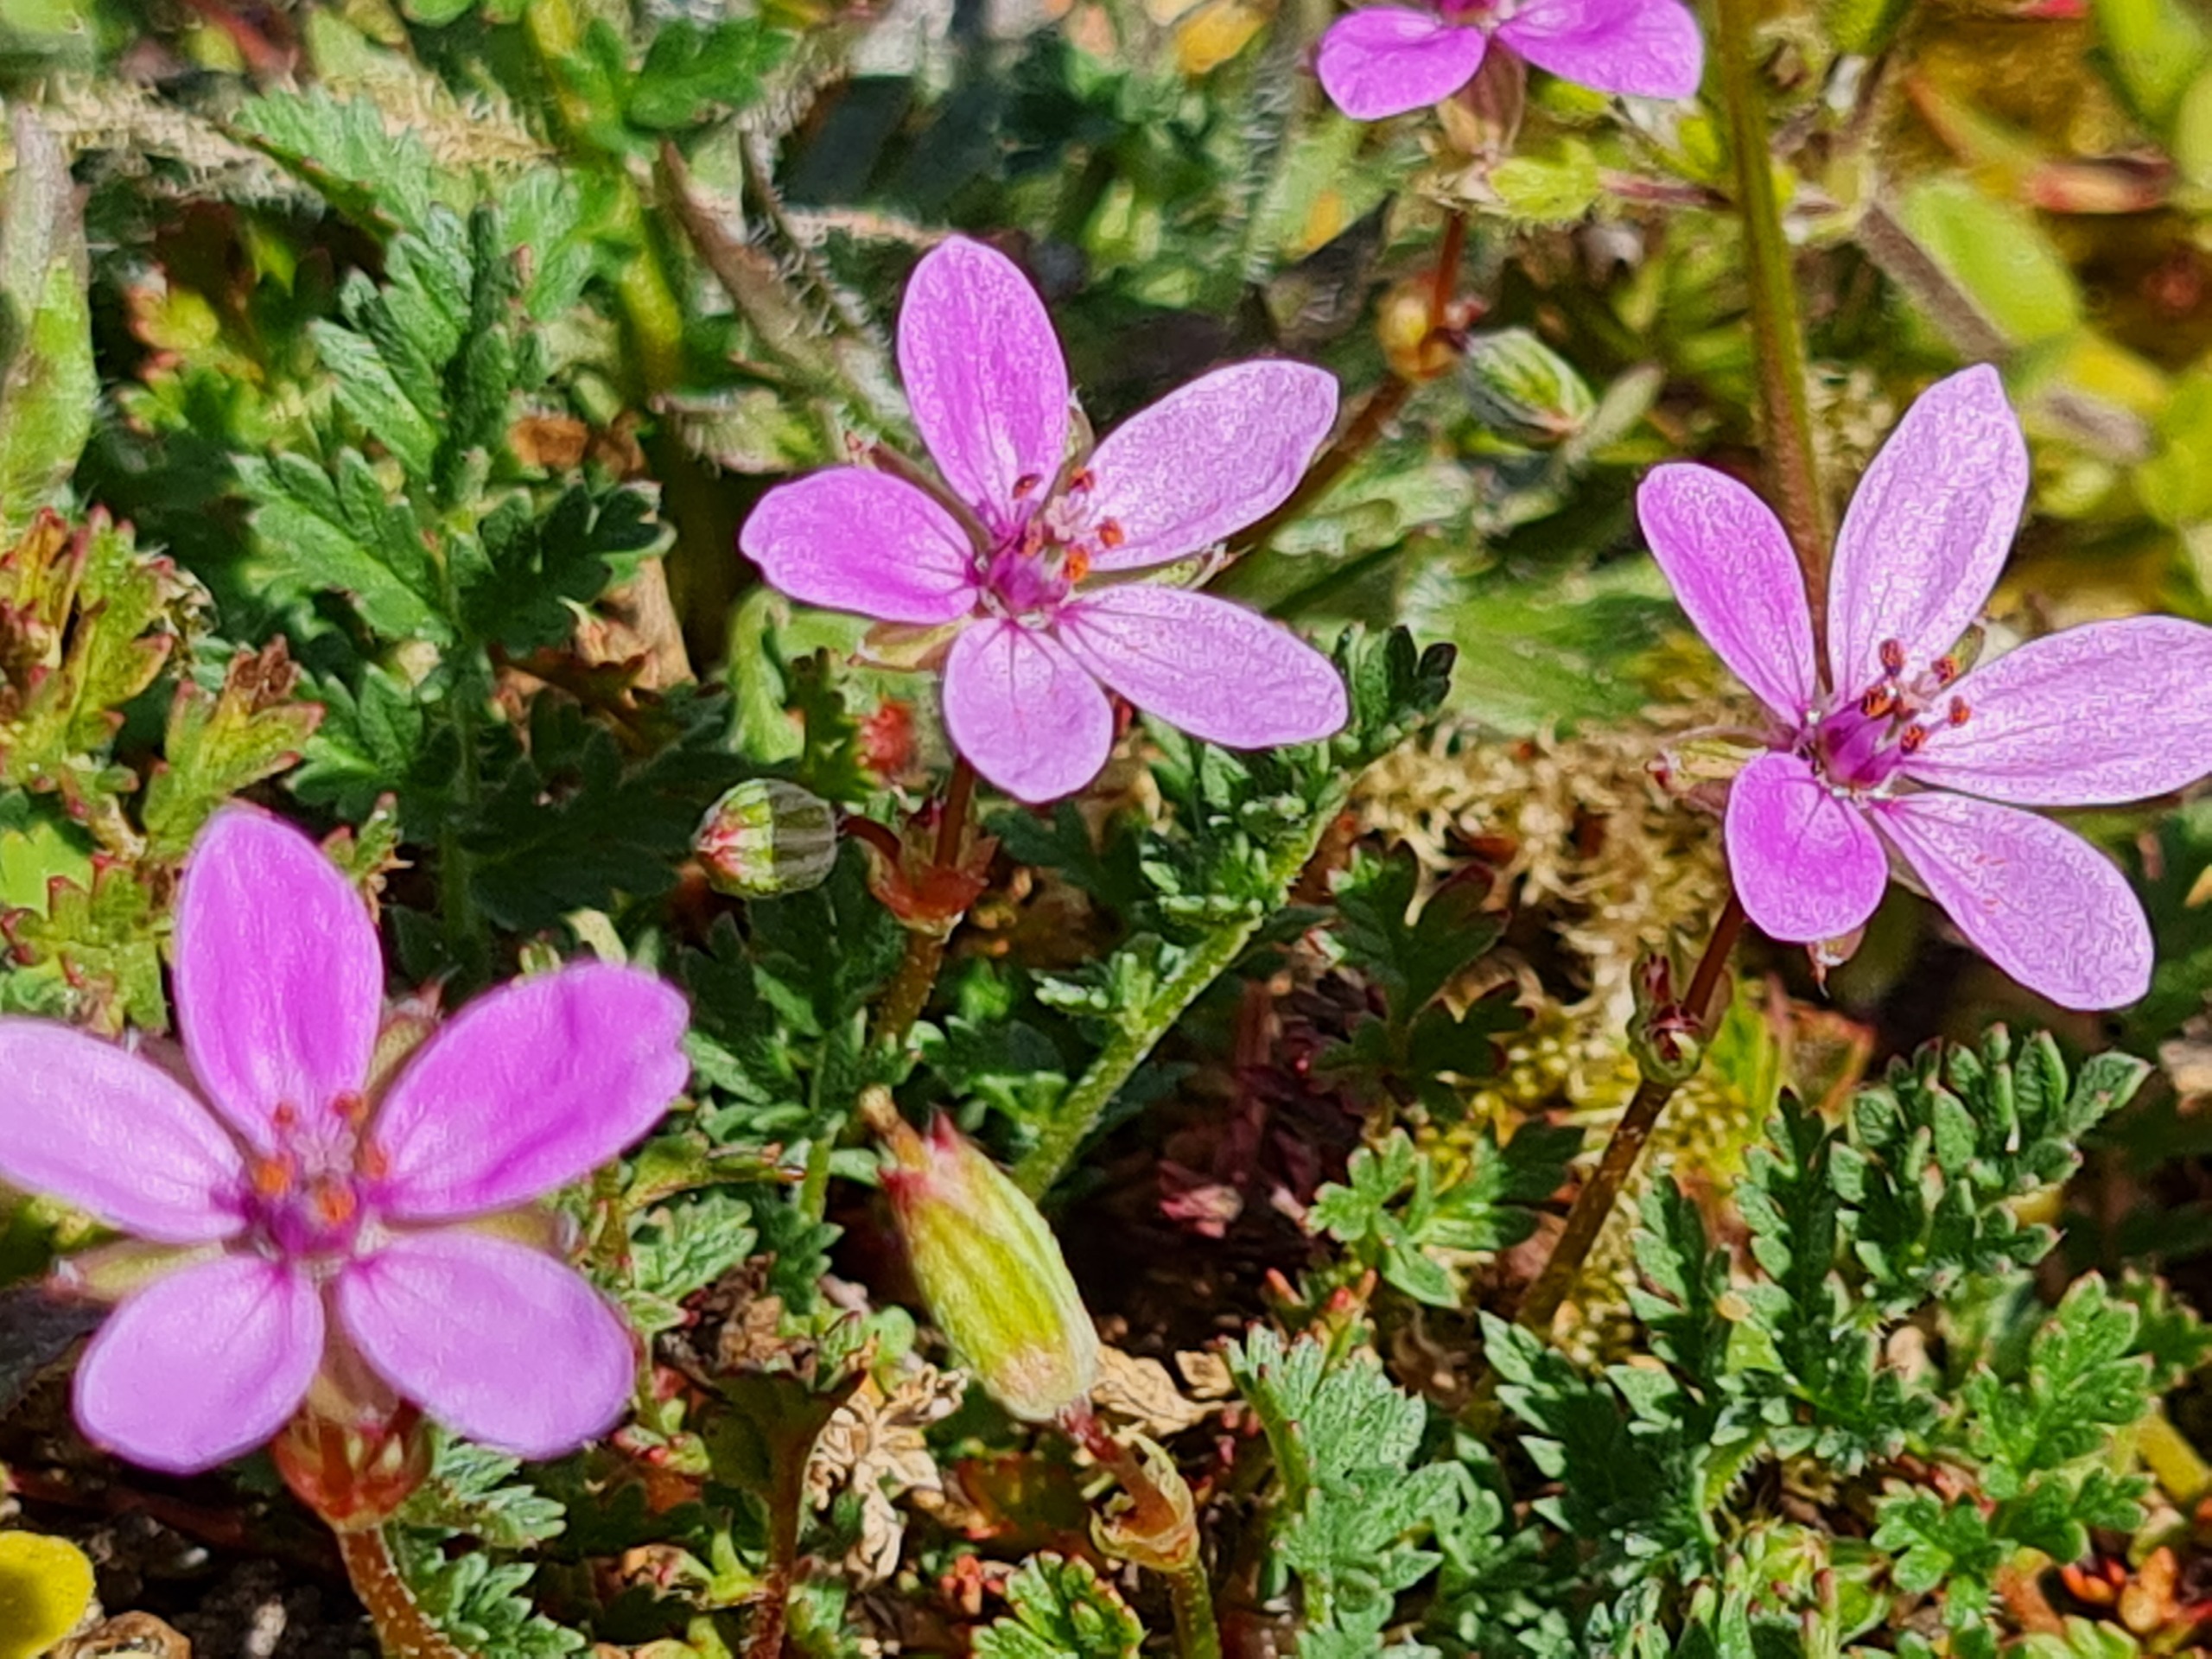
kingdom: Plantae
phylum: Tracheophyta
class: Magnoliopsida
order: Geraniales
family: Geraniaceae
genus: Erodium
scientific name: Erodium cicutarium
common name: Hejrenæb
